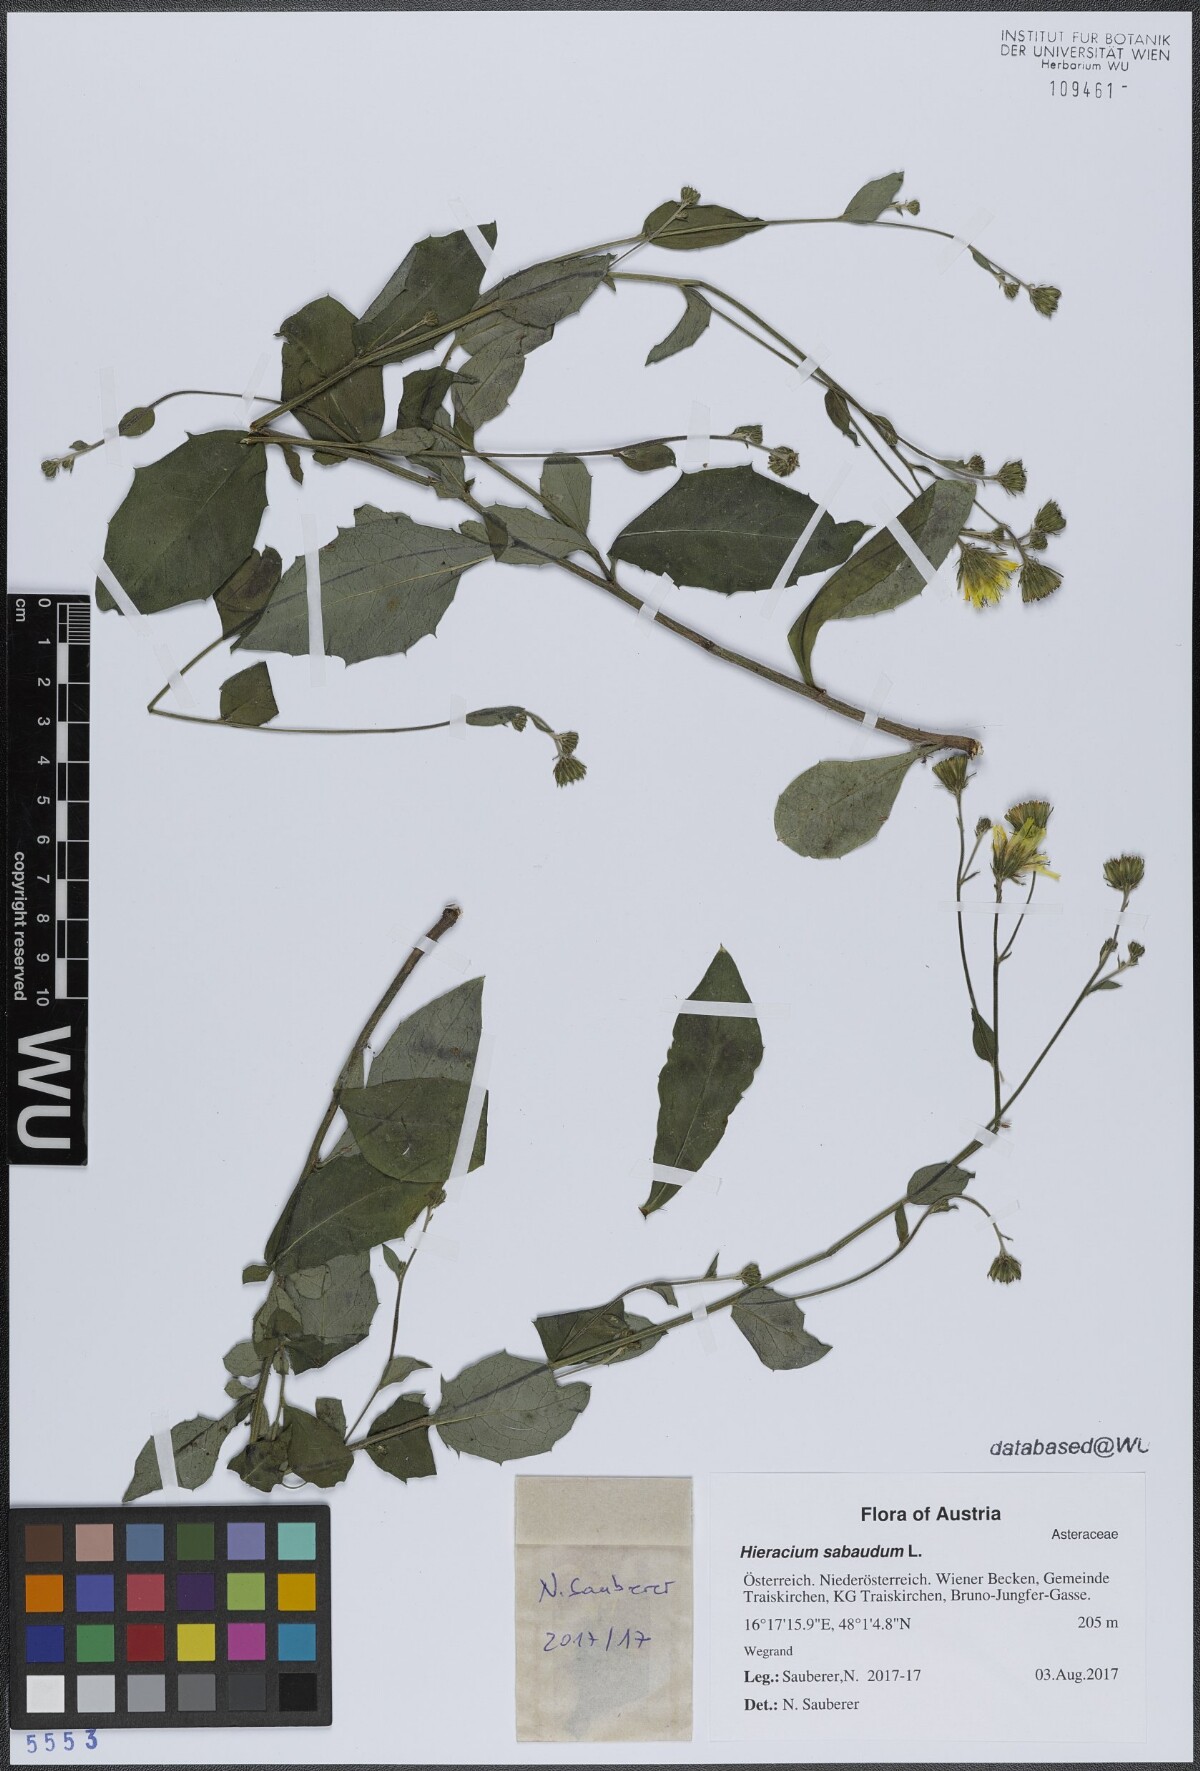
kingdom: Plantae
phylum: Tracheophyta
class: Magnoliopsida
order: Asterales
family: Asteraceae
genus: Hieracium
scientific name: Hieracium sabaudum
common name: New england hawkweed
